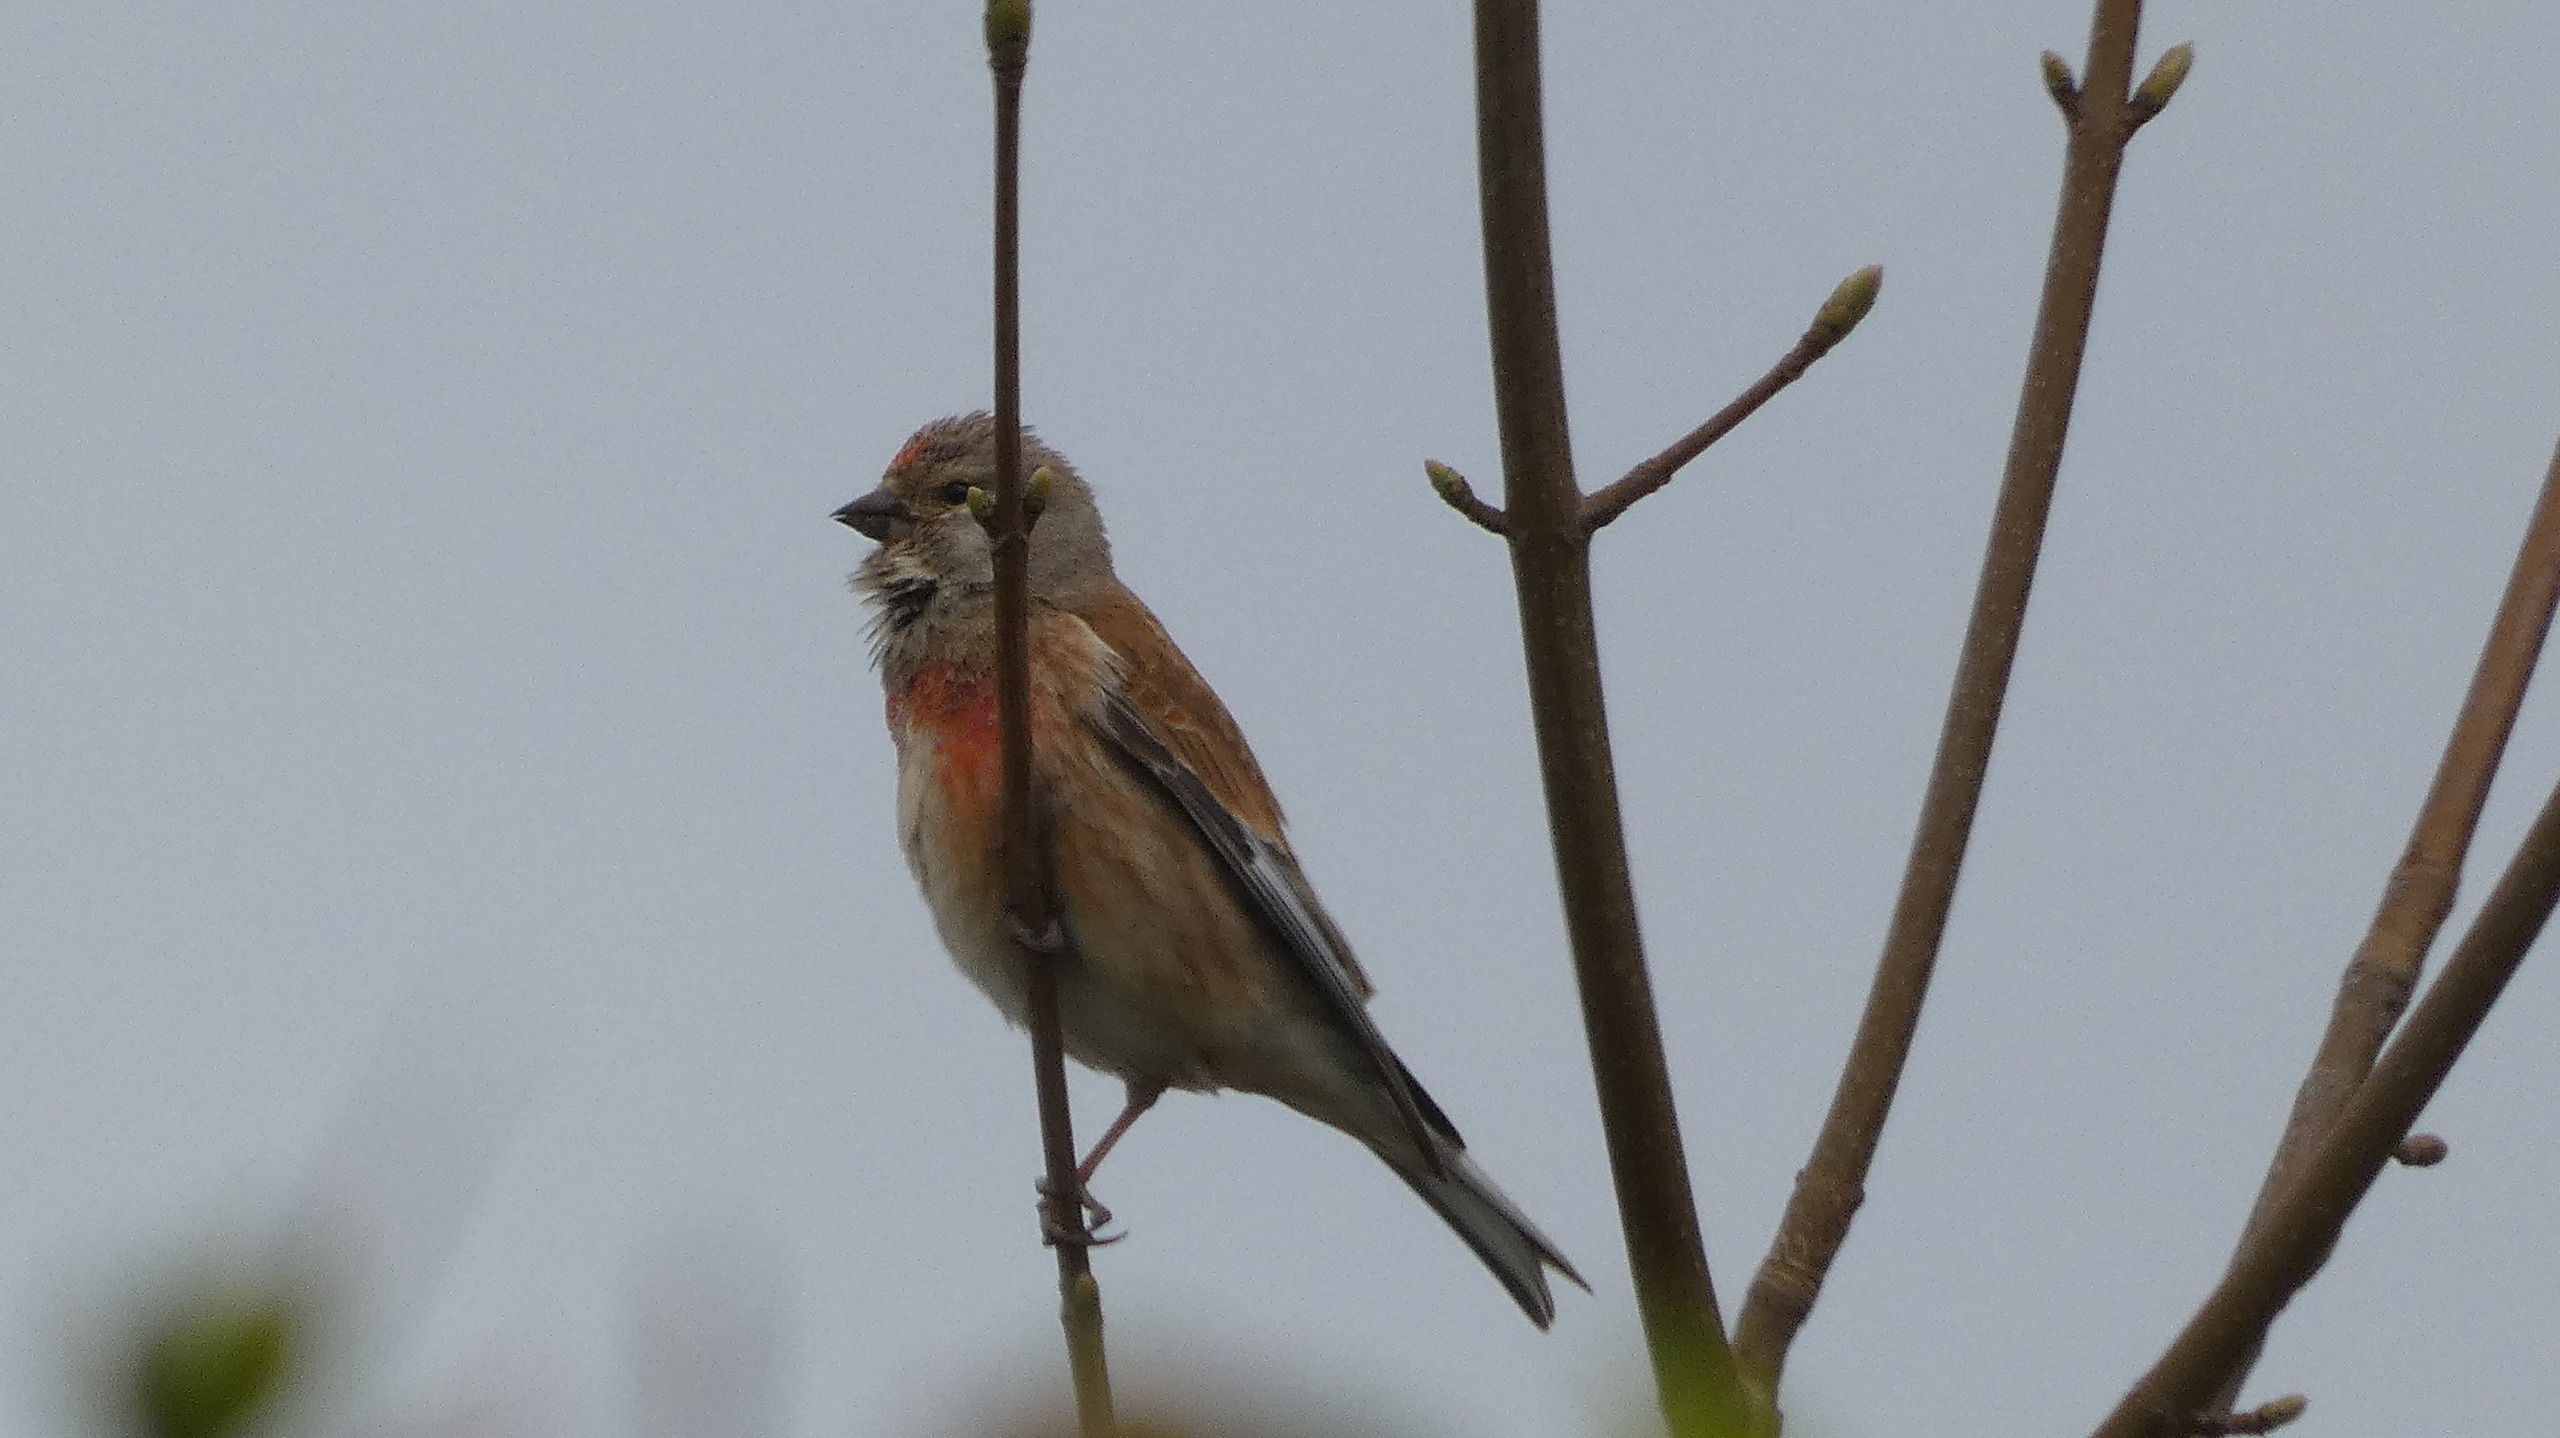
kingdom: Animalia
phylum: Chordata
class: Aves
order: Passeriformes
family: Fringillidae
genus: Linaria
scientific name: Linaria cannabina
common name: Tornirisk
